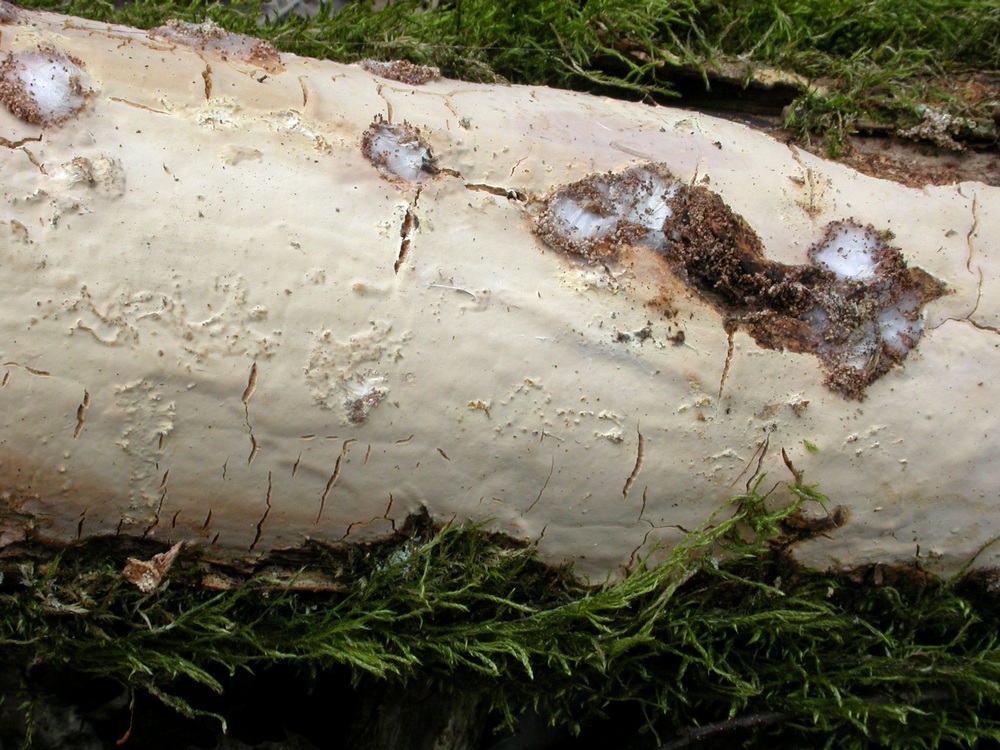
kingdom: Fungi
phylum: Basidiomycota
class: Agaricomycetes
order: Russulales
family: Peniophoraceae
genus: Scytinostroma
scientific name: Scytinostroma hemidichophyticum
